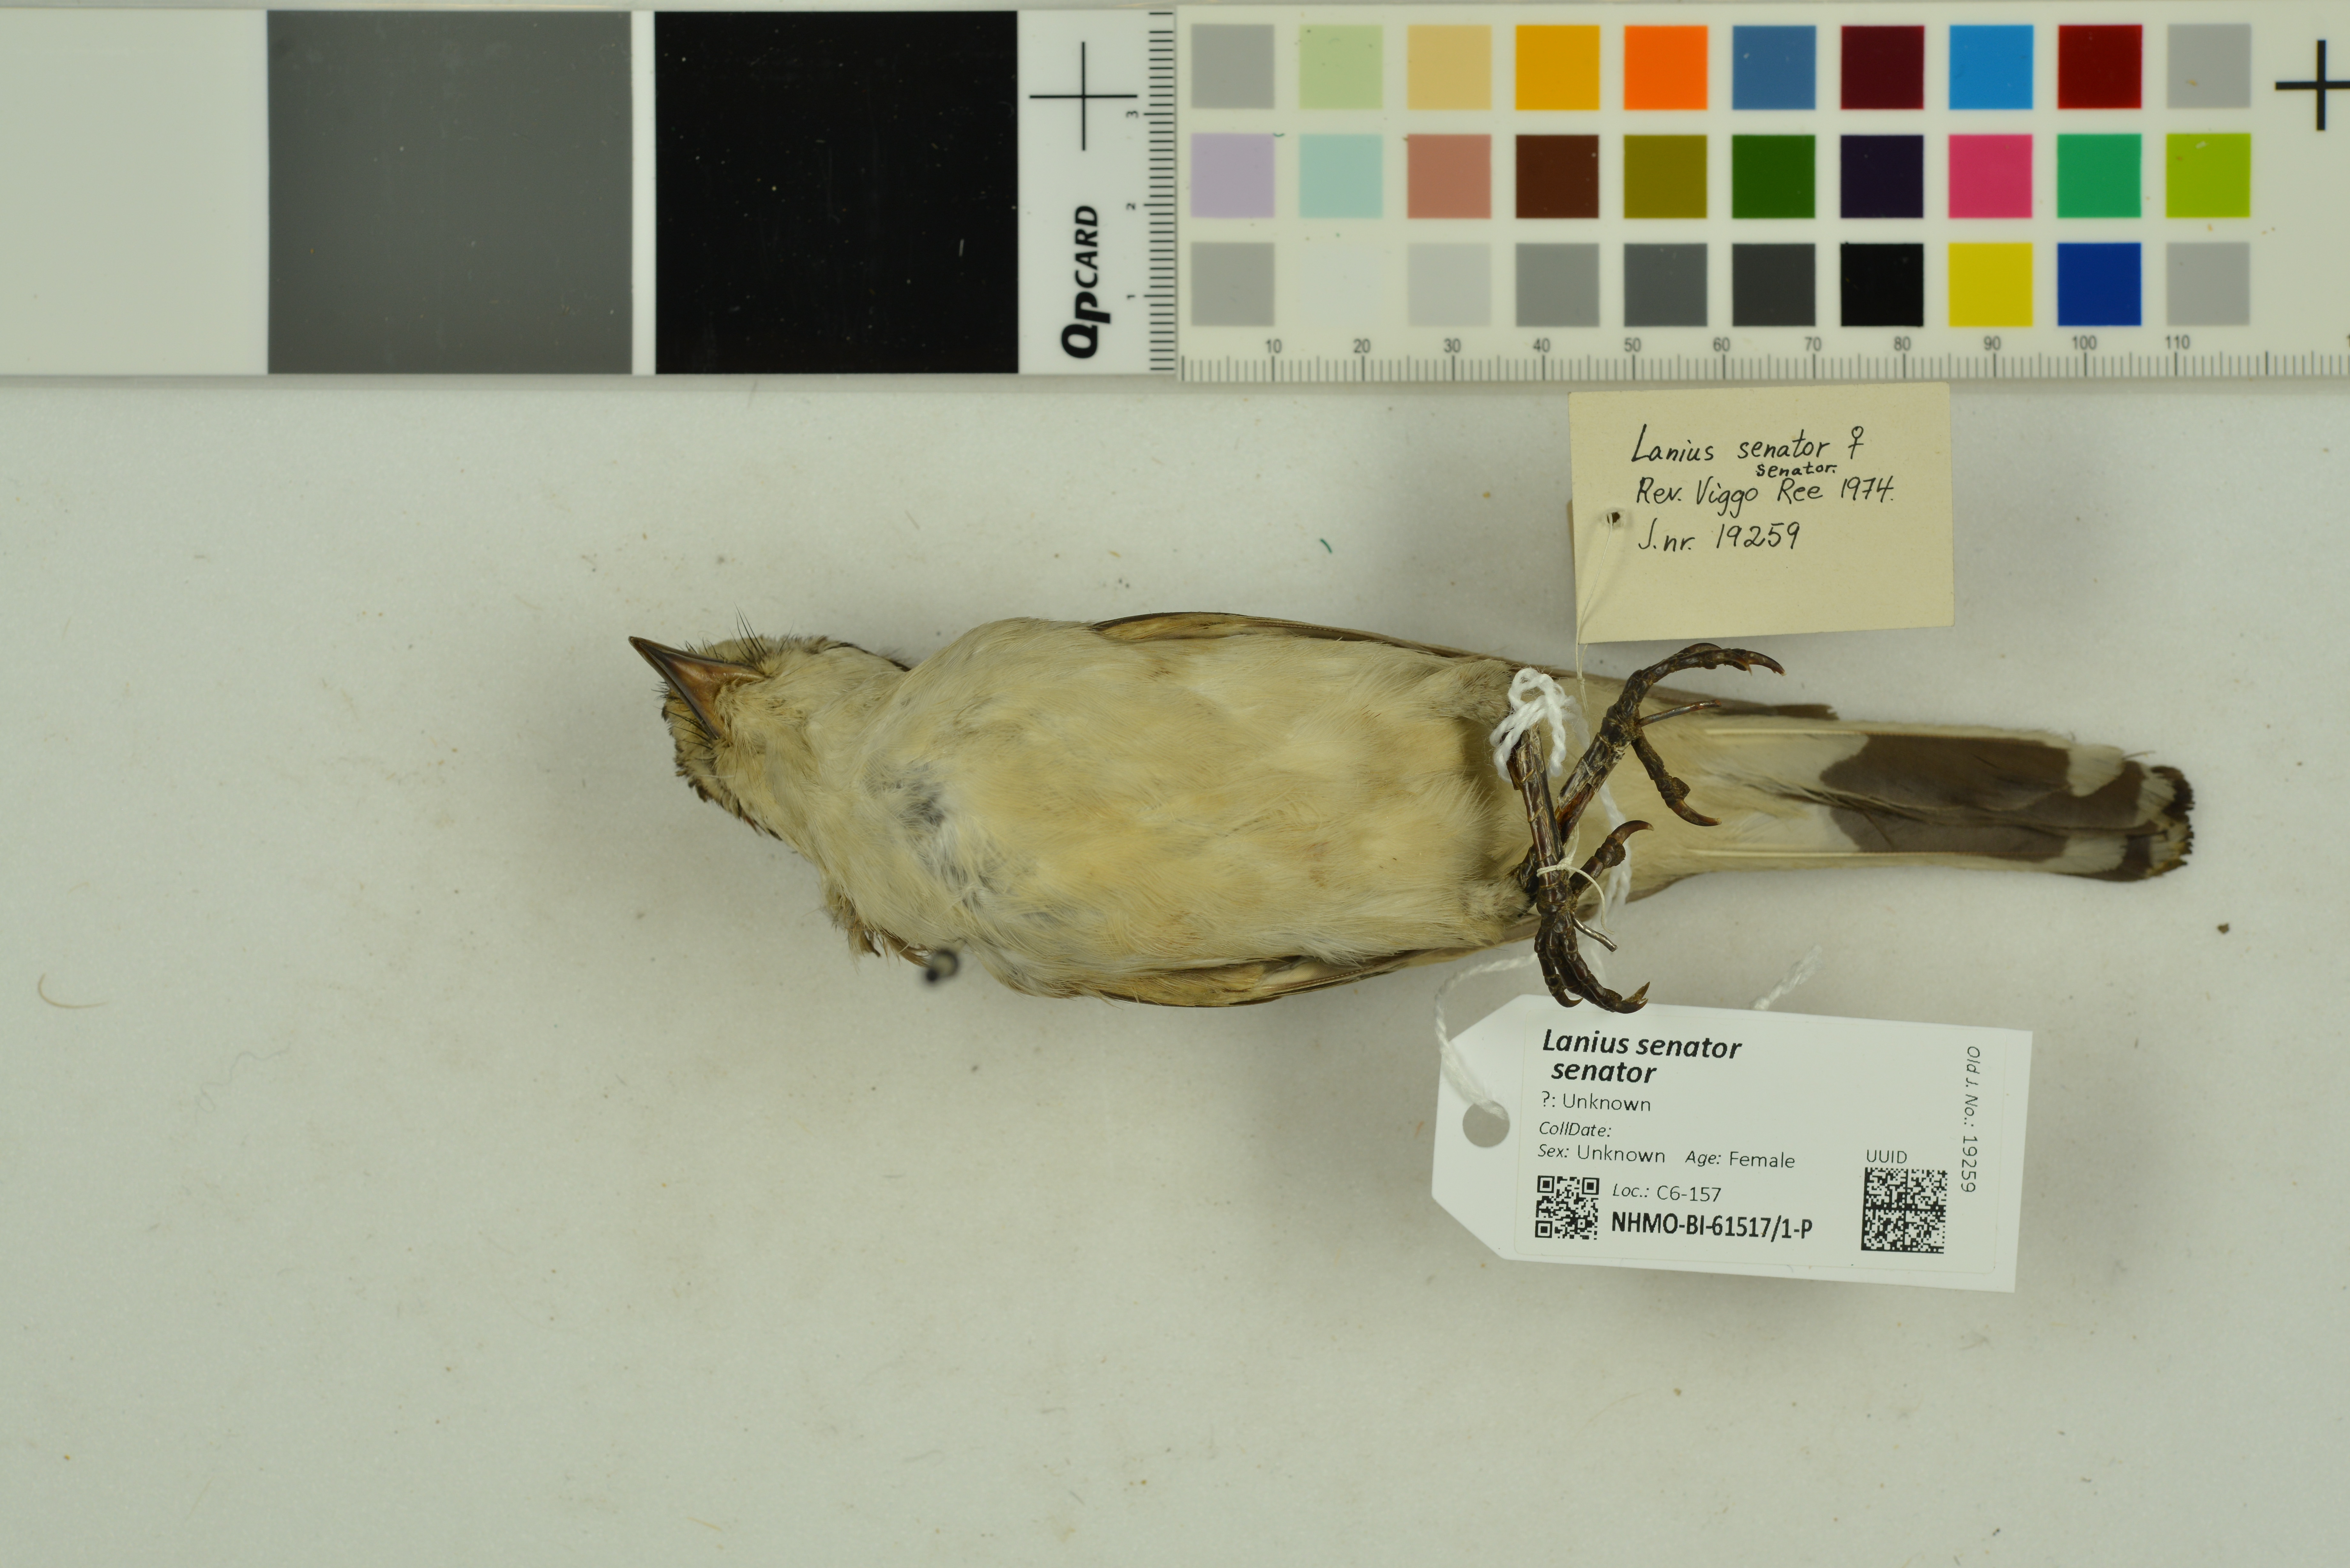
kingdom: Animalia
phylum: Chordata
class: Aves
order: Passeriformes
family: Laniidae
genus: Lanius
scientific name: Lanius senator
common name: Woodchat shrike
